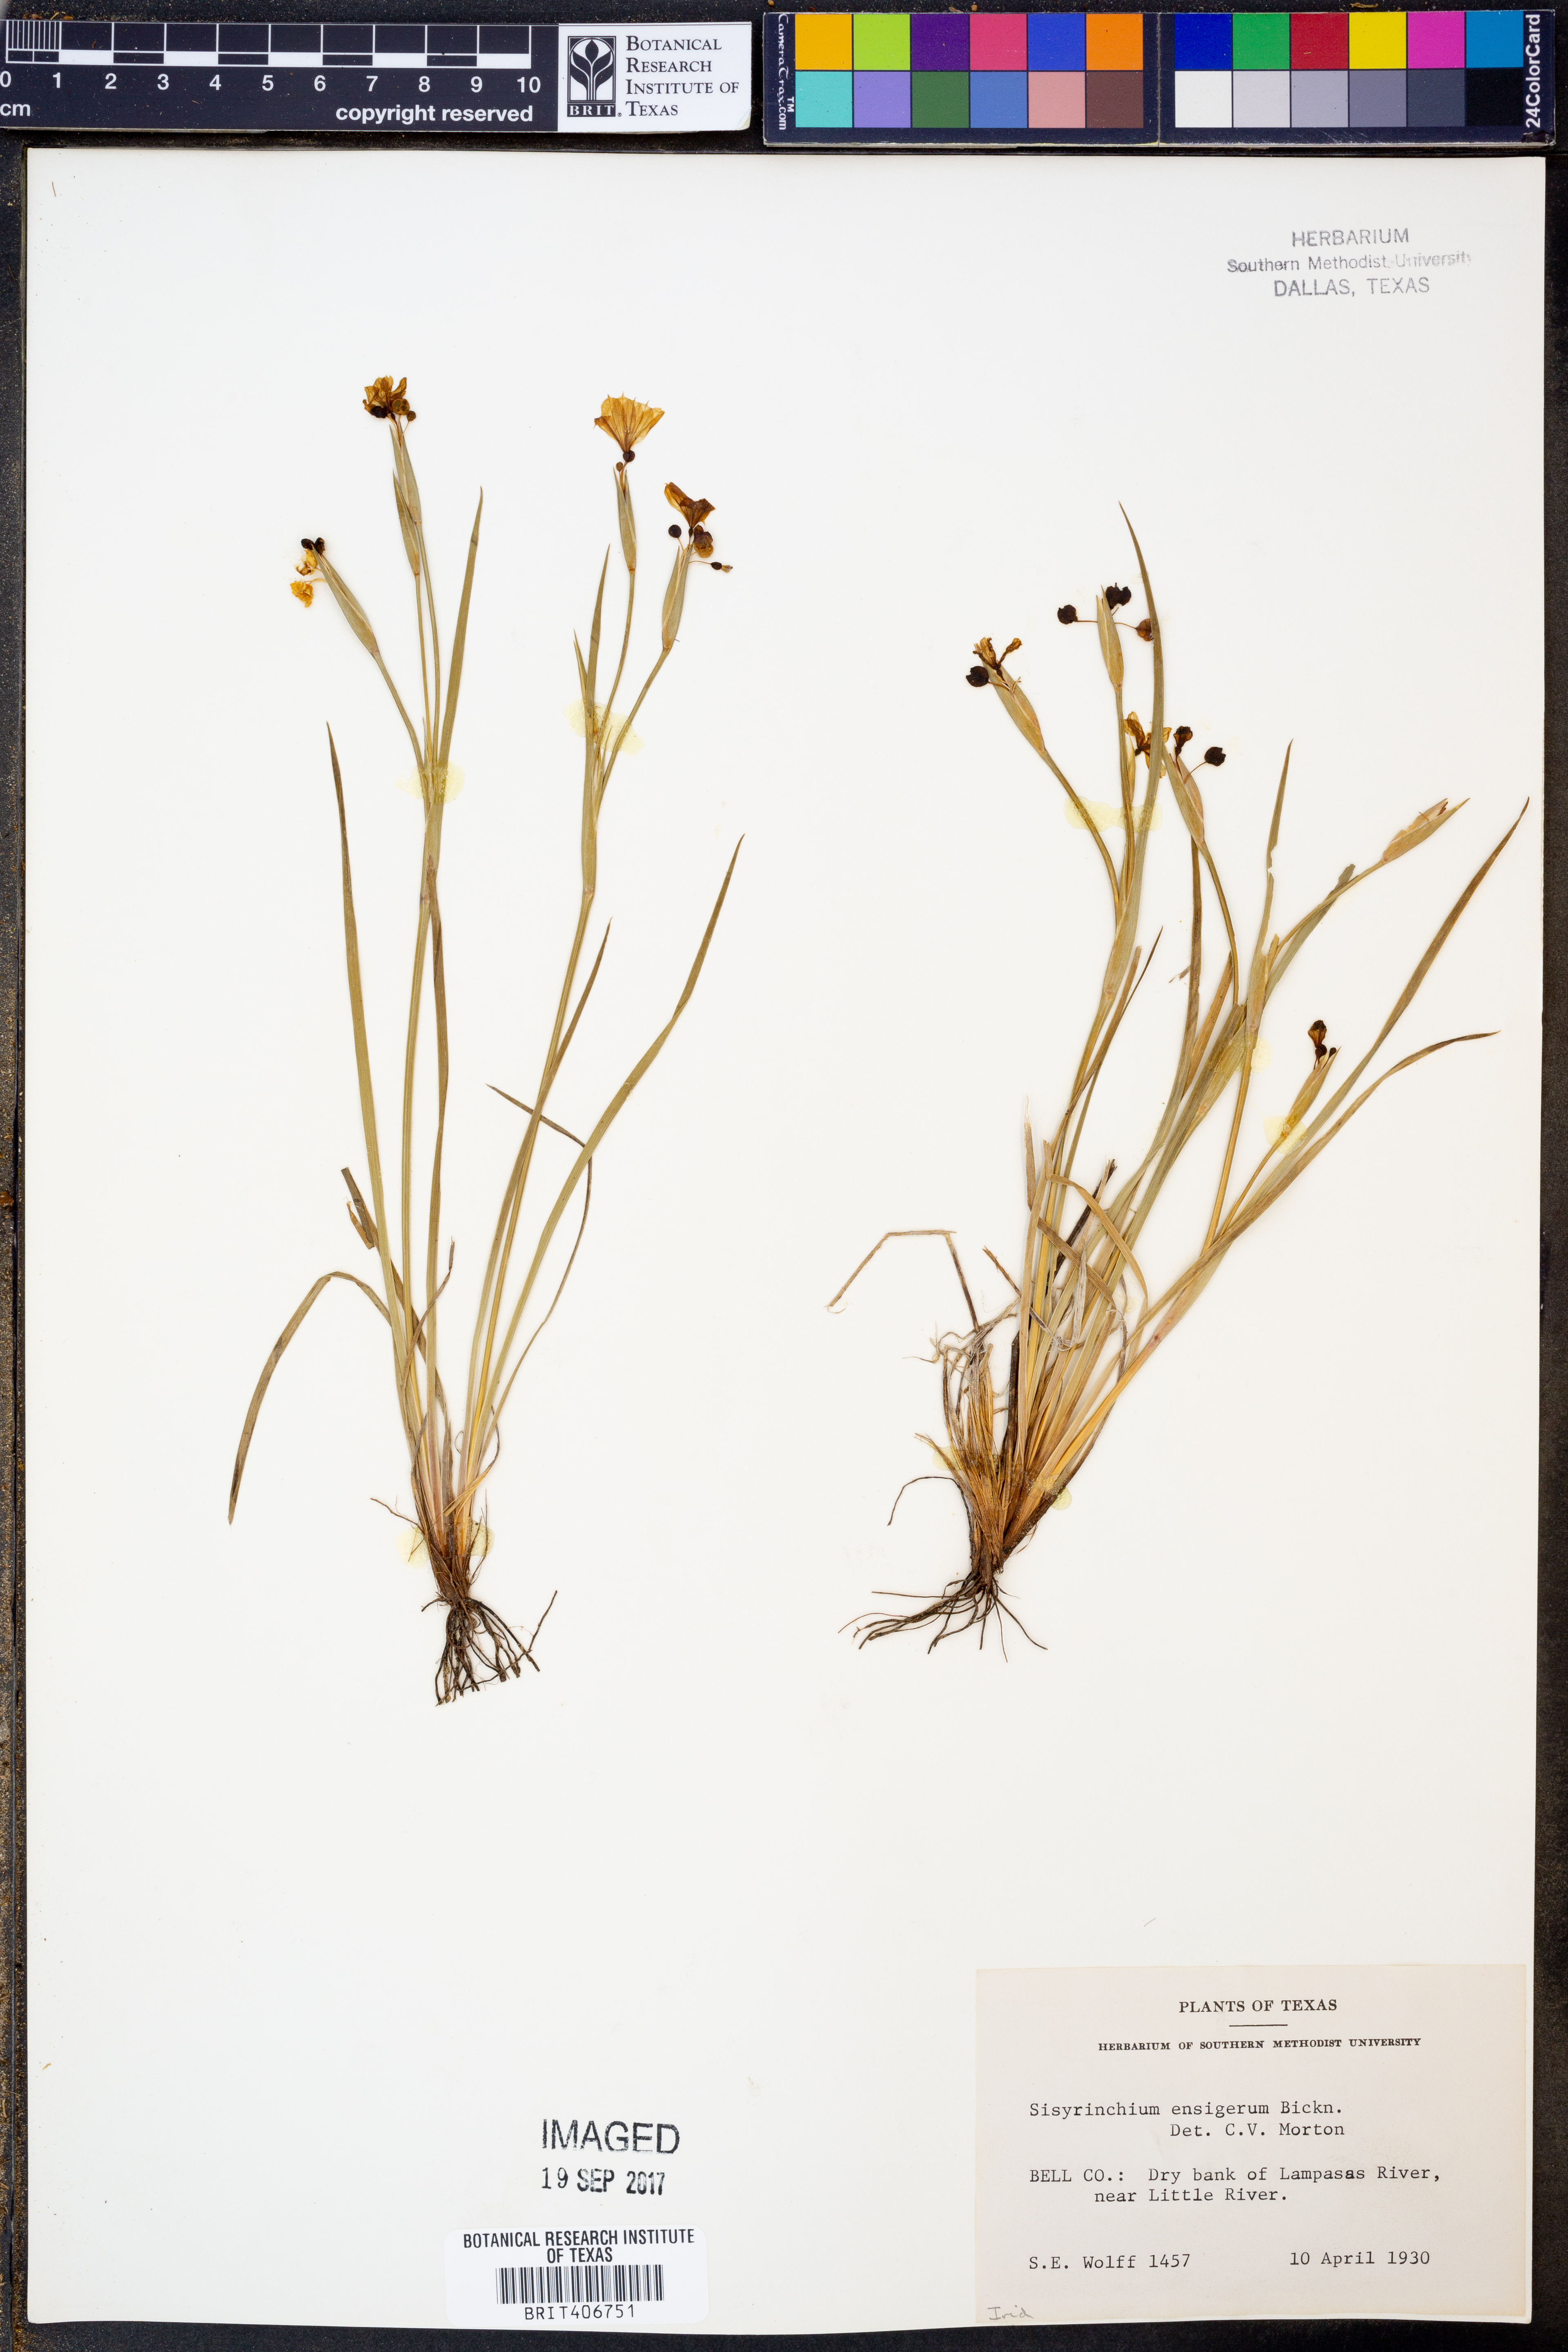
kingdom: Plantae
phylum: Tracheophyta
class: Liliopsida
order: Asparagales
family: Iridaceae
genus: Sisyrinchium
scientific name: Sisyrinchium ensigerum
